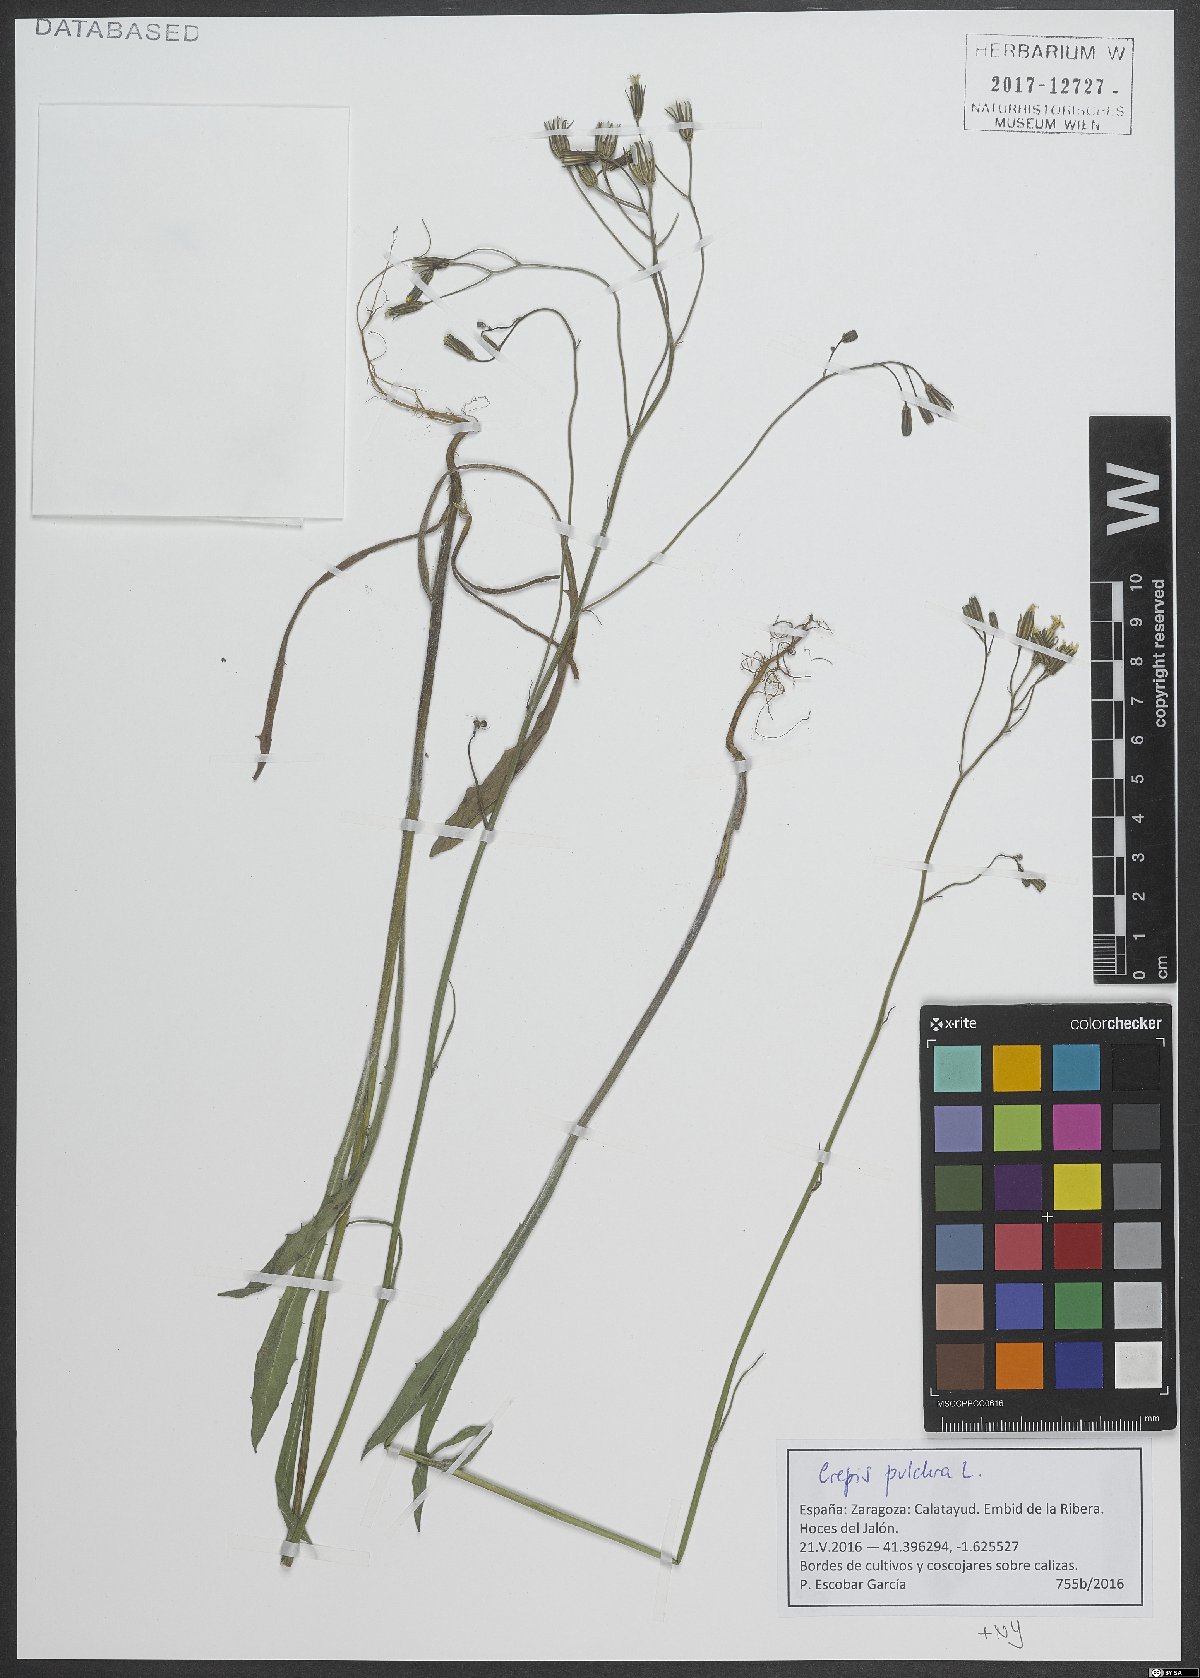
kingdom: Plantae
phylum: Tracheophyta
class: Magnoliopsida
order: Asterales
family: Asteraceae
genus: Crepis
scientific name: Crepis pulchra
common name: Hawk's-beard
